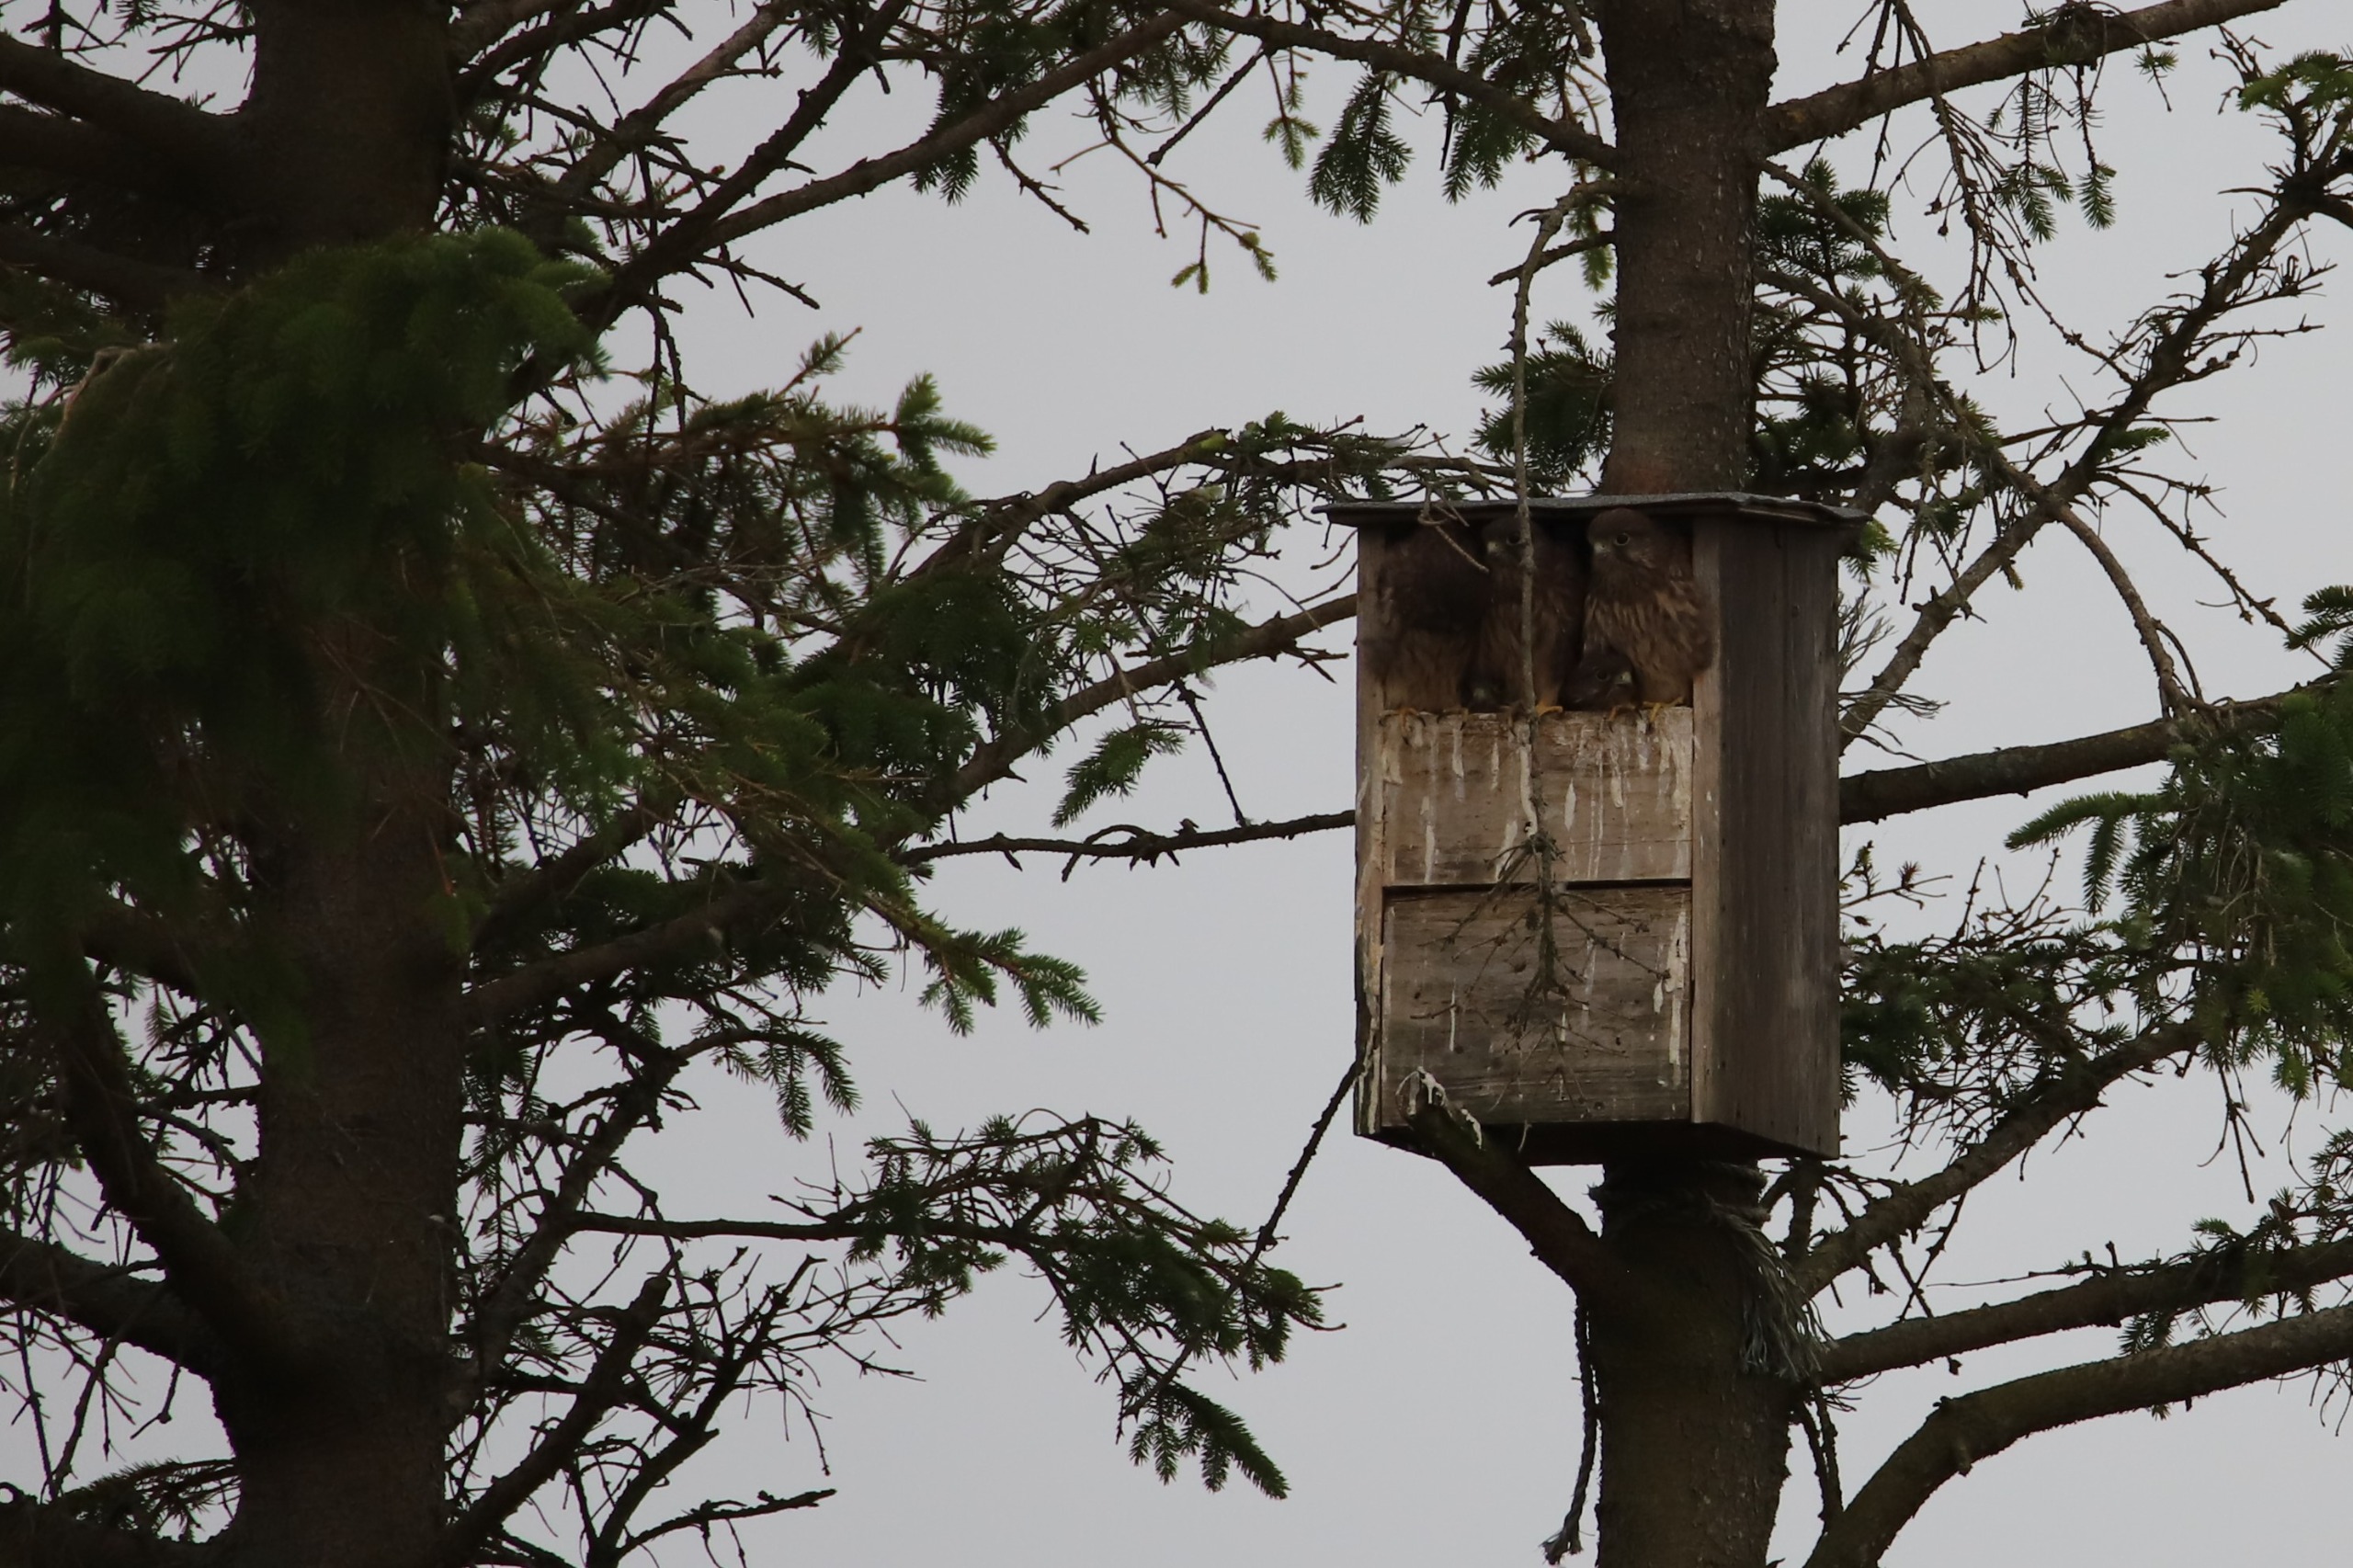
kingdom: Animalia
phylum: Chordata
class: Aves
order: Falconiformes
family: Falconidae
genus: Falco
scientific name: Falco tinnunculus
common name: Tårnfalk
